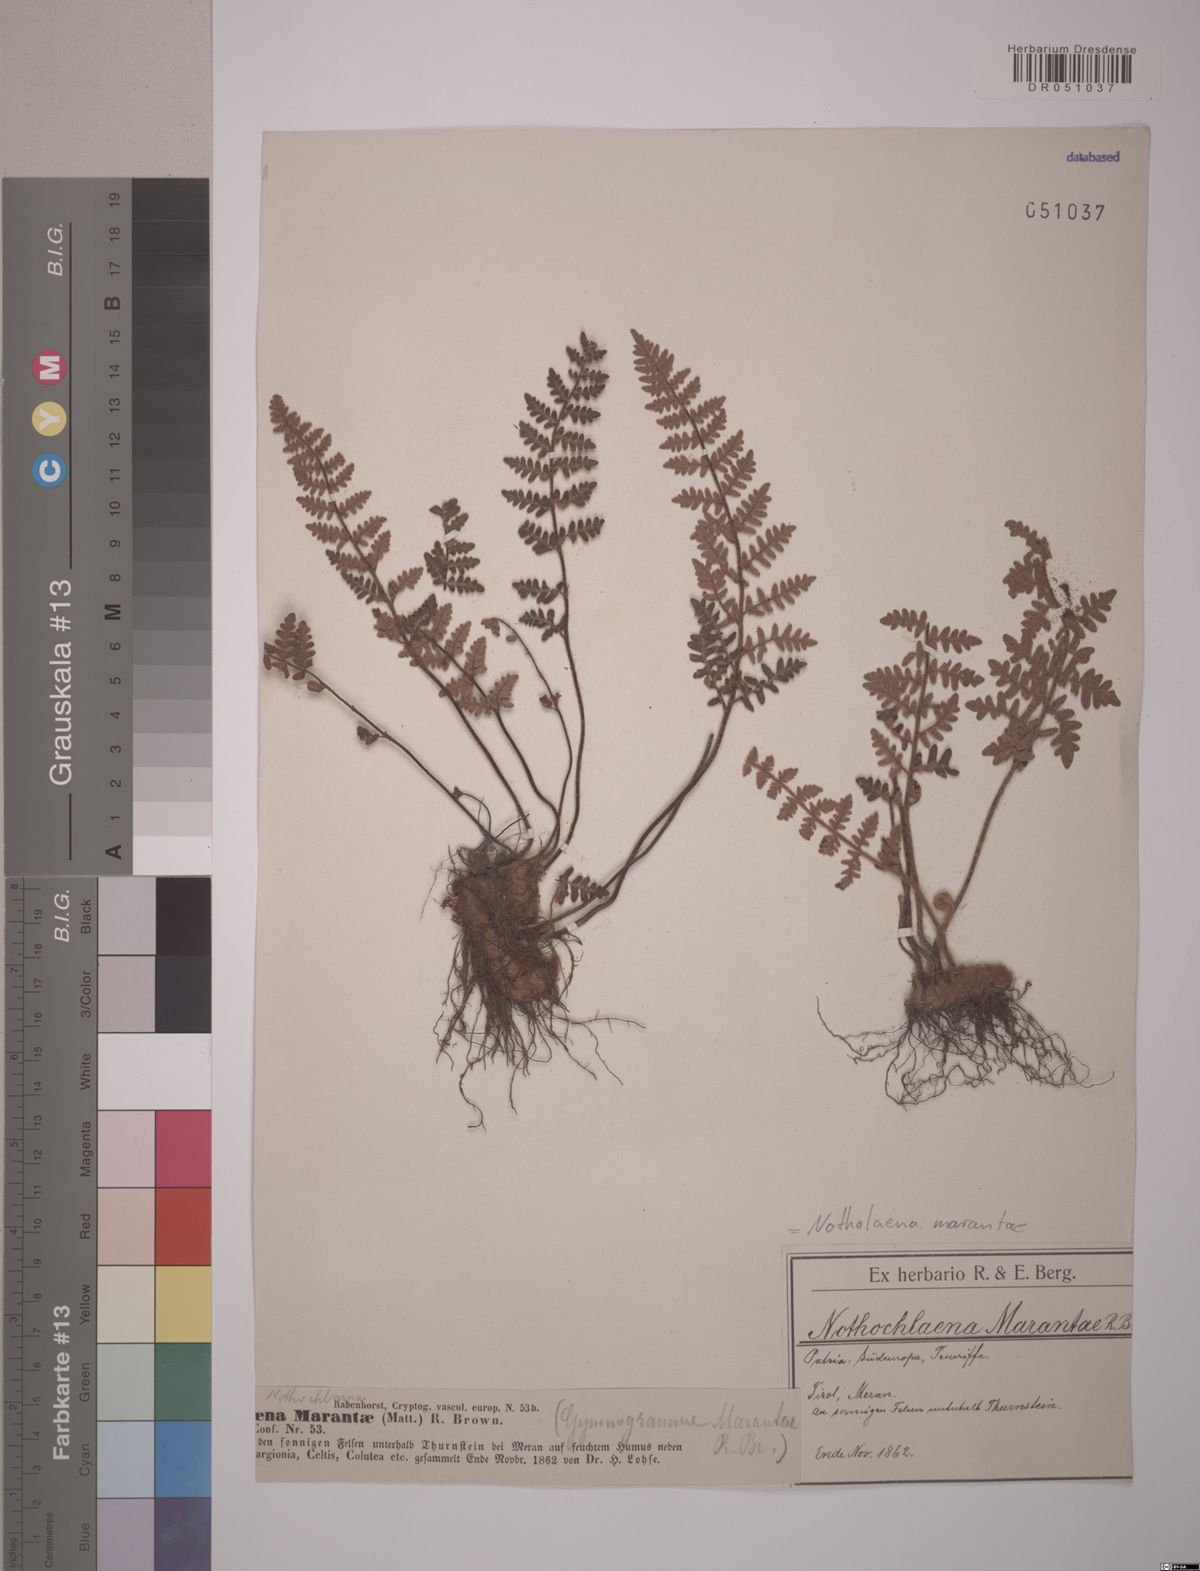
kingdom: Plantae
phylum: Tracheophyta
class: Polypodiopsida
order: Polypodiales
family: Pteridaceae
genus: Paragymnopteris
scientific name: Paragymnopteris marantae
